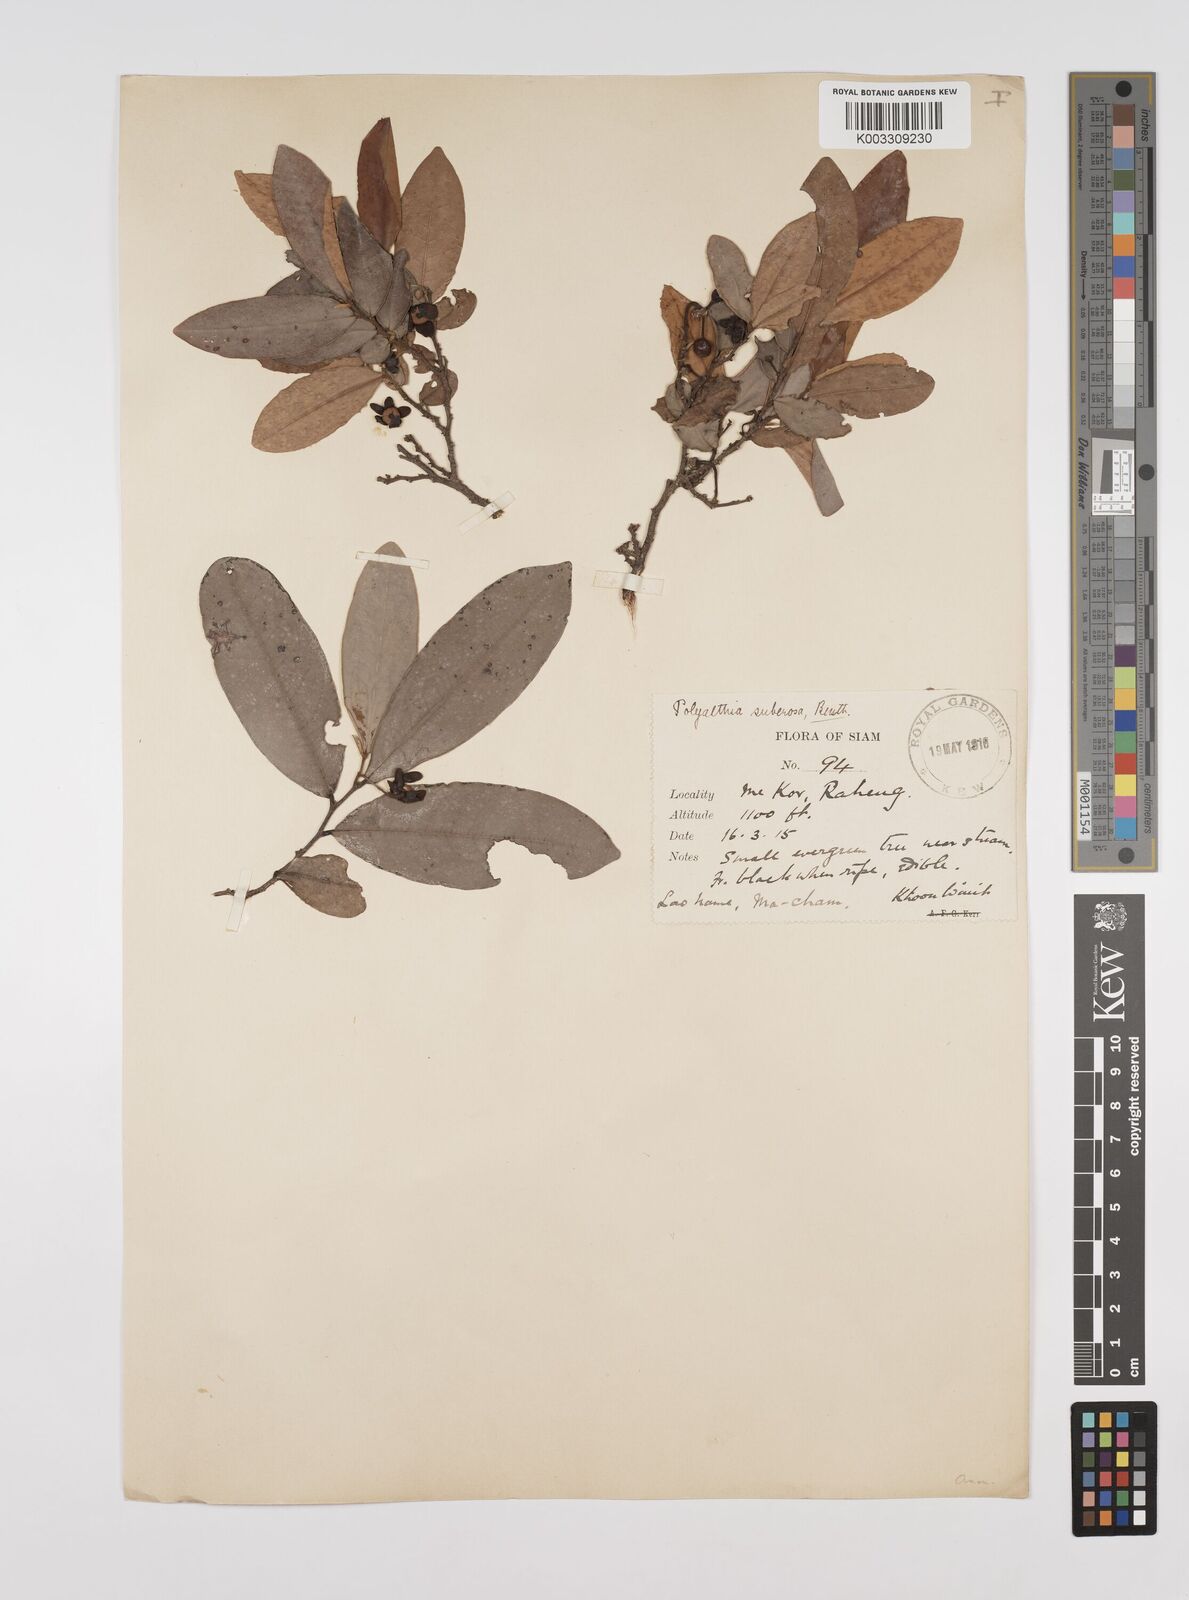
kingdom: Plantae
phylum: Tracheophyta
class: Magnoliopsida
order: Magnoliales
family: Annonaceae
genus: Polyalthia
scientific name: Polyalthia suberosa
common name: Polyalthia plant
